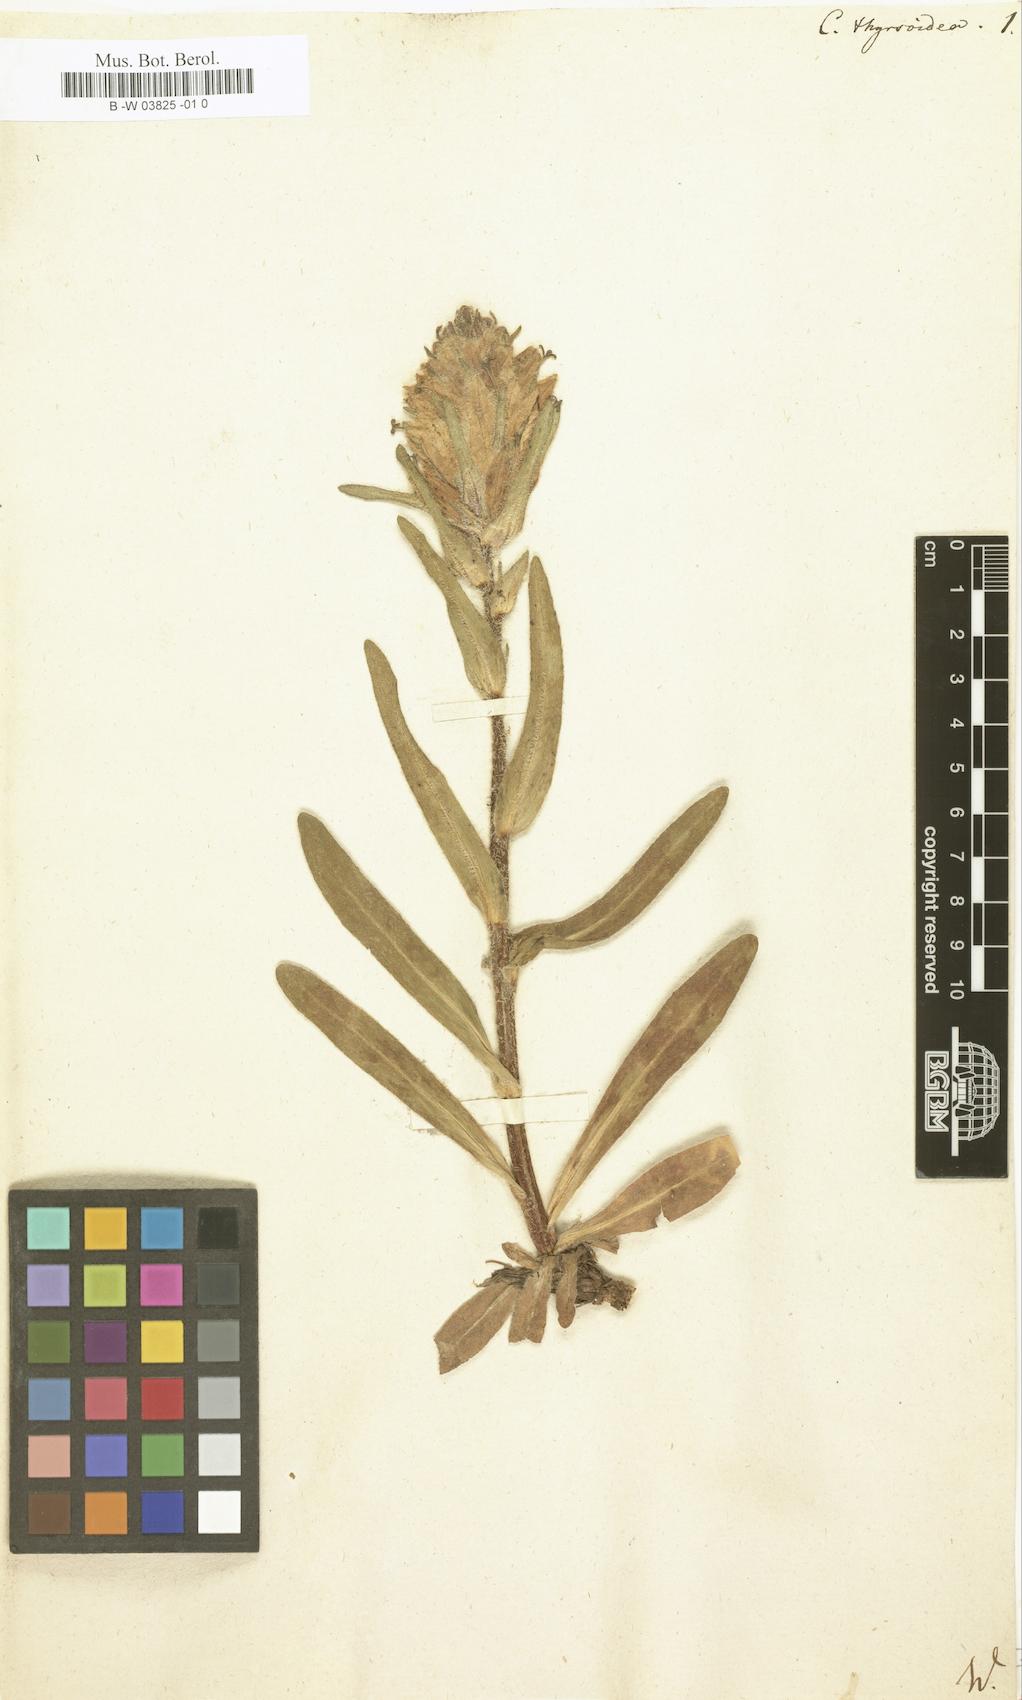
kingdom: Plantae
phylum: Tracheophyta
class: Magnoliopsida
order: Asterales
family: Campanulaceae
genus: Campanula
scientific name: Campanula speciosa
